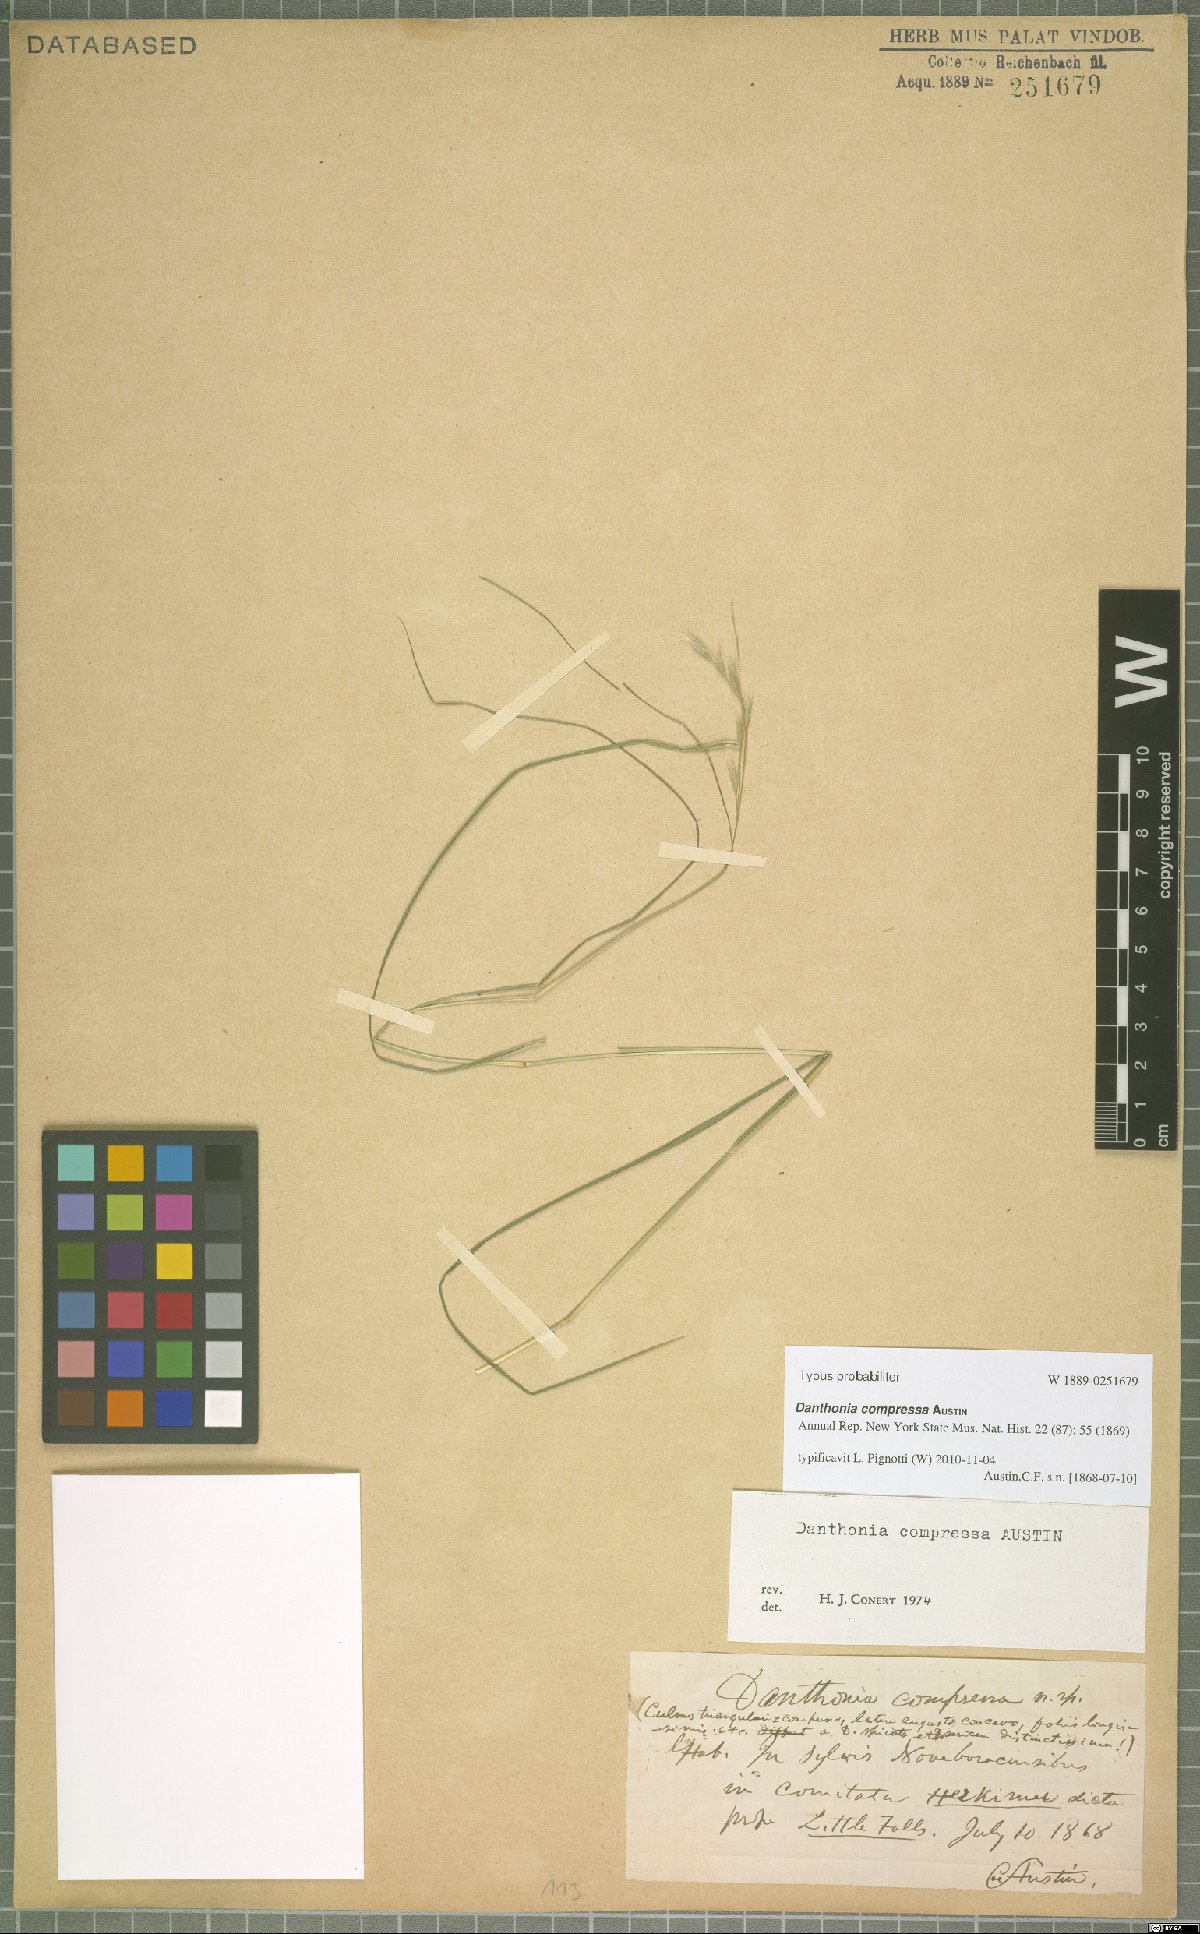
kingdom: Plantae
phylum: Tracheophyta
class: Liliopsida
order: Poales
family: Poaceae
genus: Danthonia
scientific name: Danthonia compressa
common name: Flat-stem oat grass
